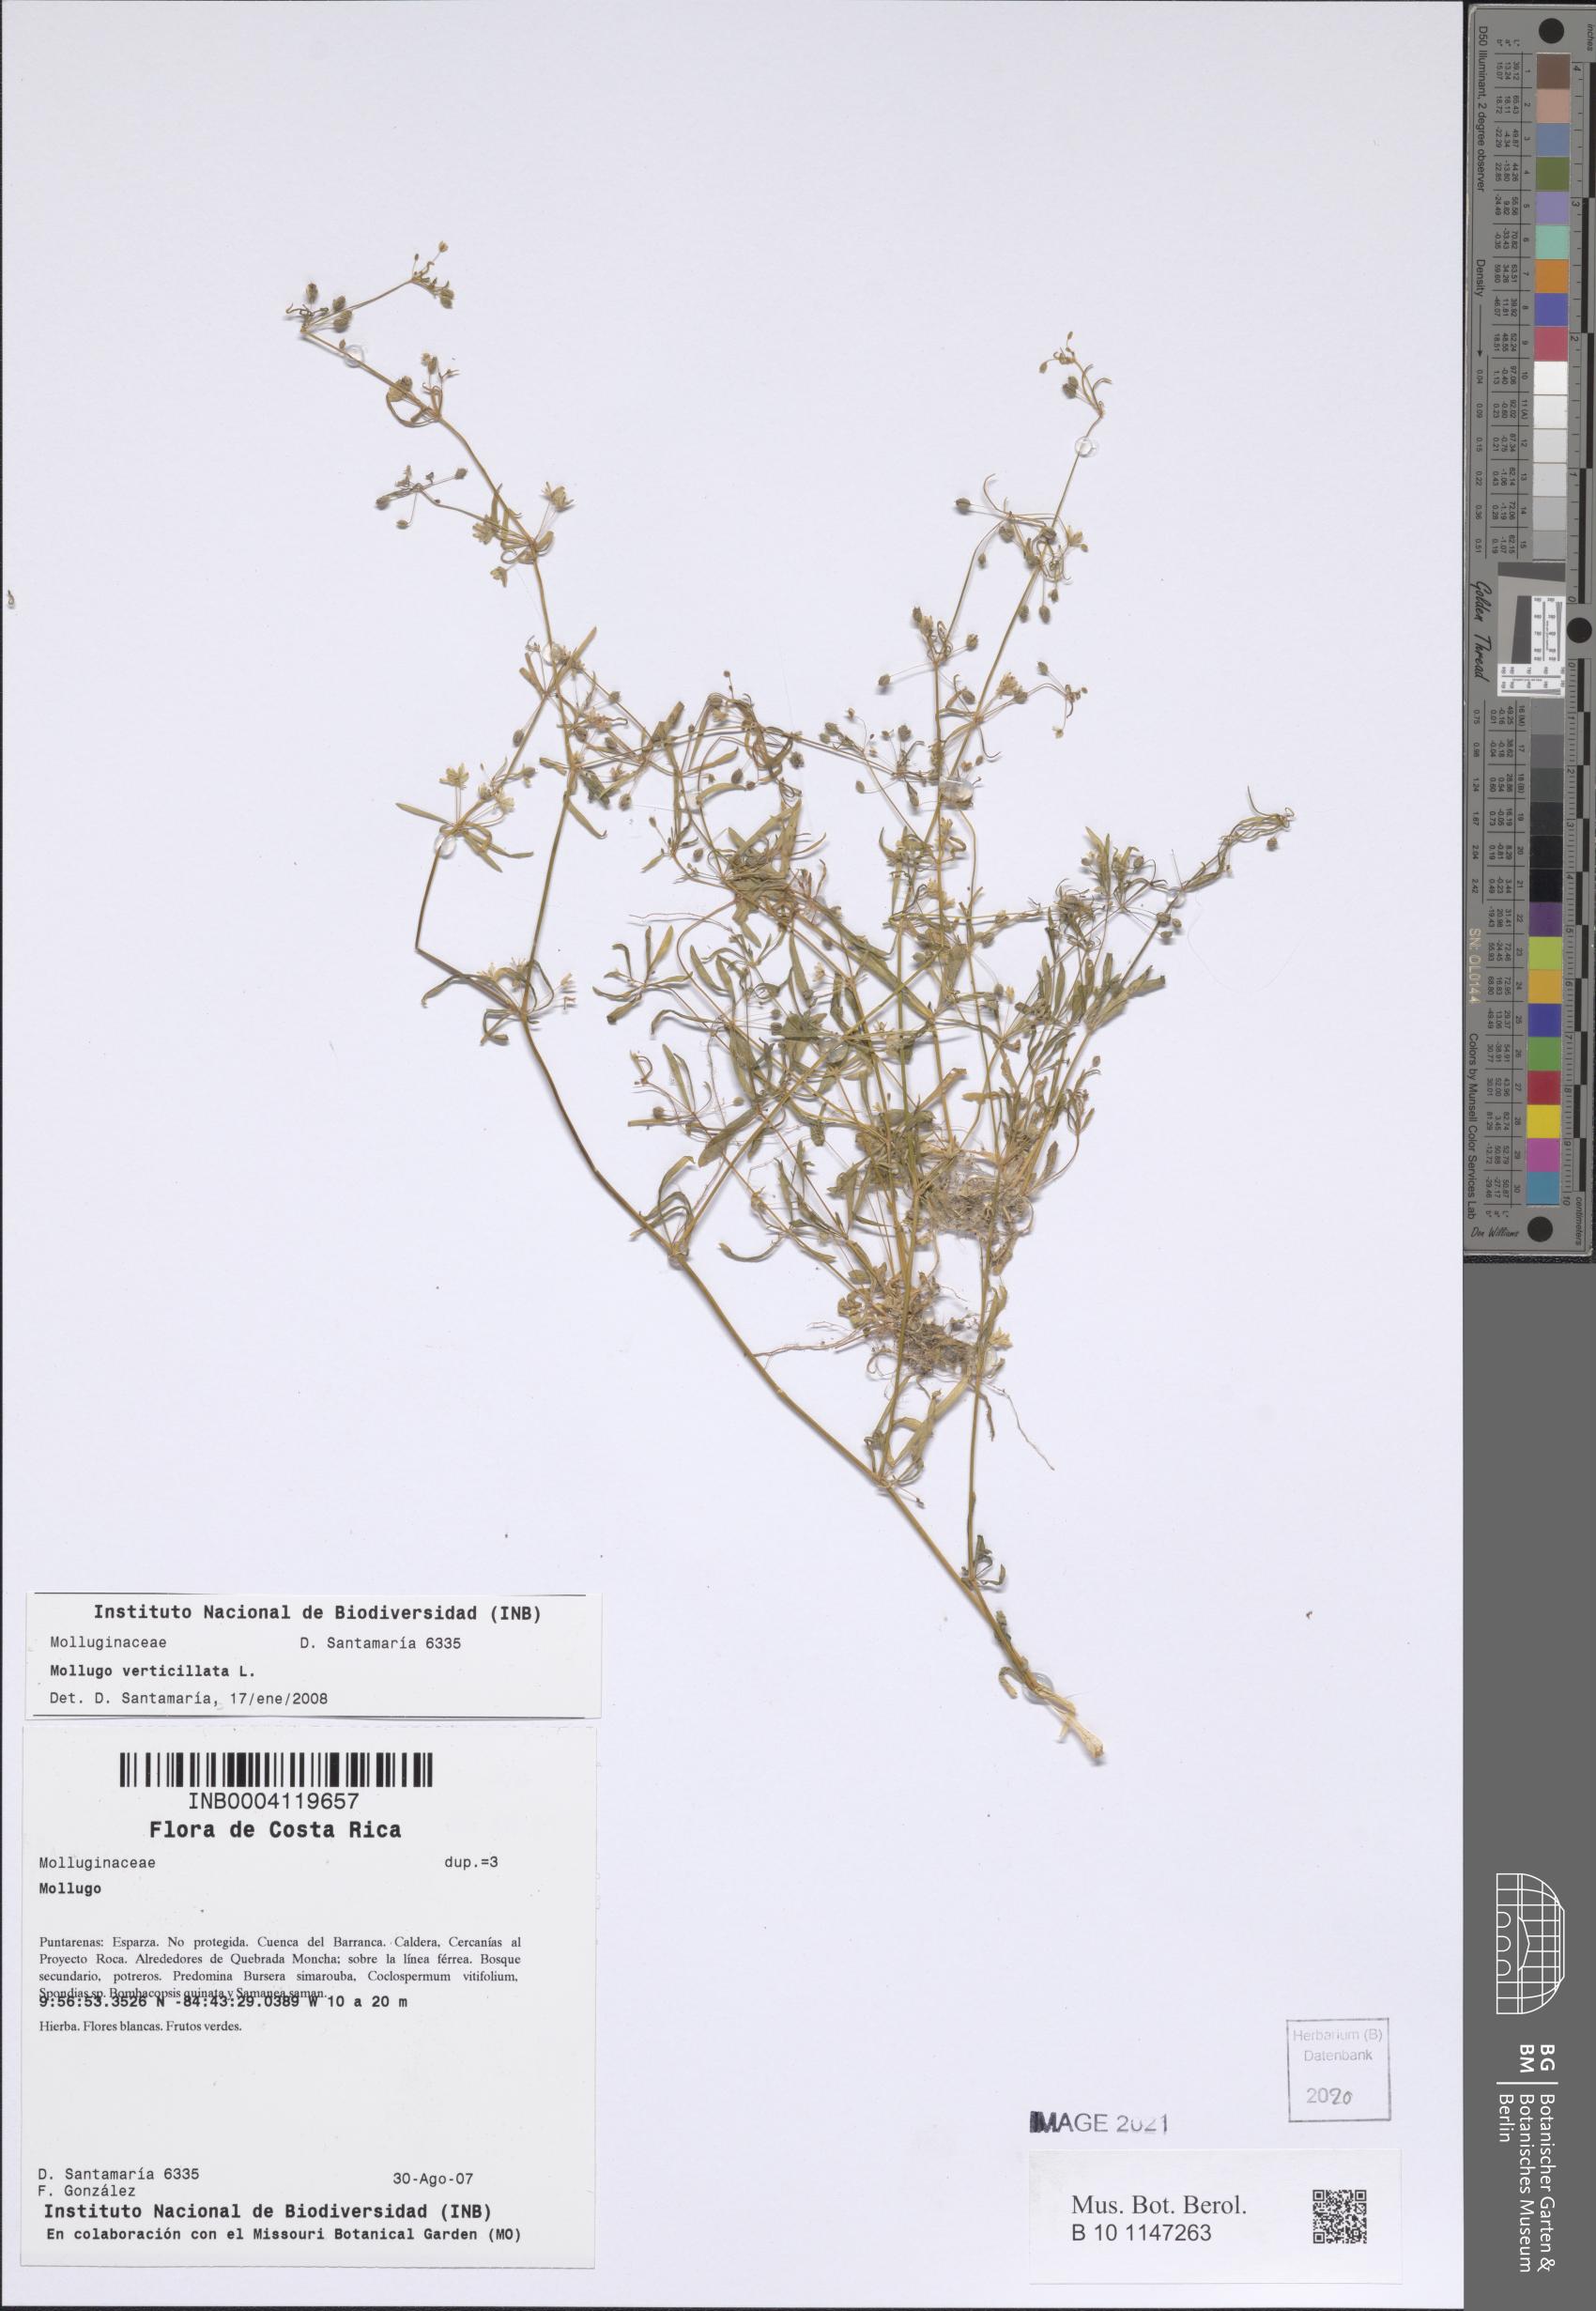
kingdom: Plantae
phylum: Tracheophyta
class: Magnoliopsida
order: Caryophyllales
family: Molluginaceae
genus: Mollugo
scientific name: Mollugo verticillata
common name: Green carpetweed
